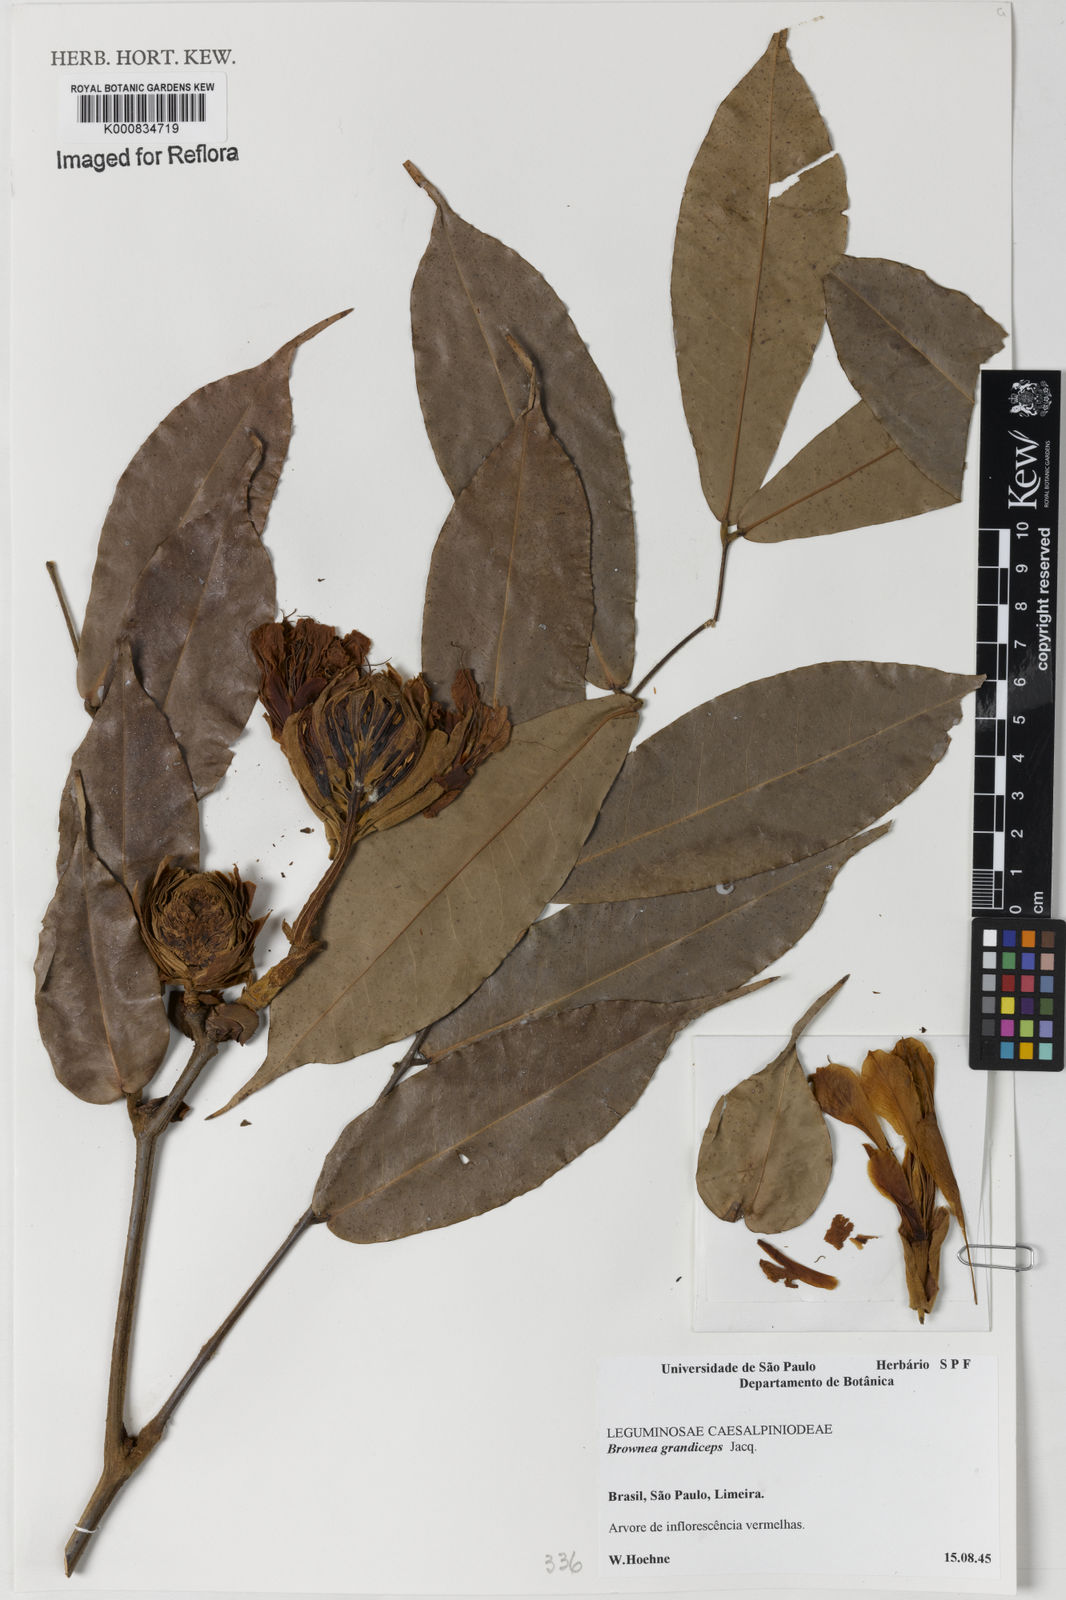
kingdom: Plantae
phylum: Tracheophyta
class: Magnoliopsida
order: Fabales
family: Fabaceae
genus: Brownea
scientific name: Brownea grandiceps
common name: Rose-of-venezuela
